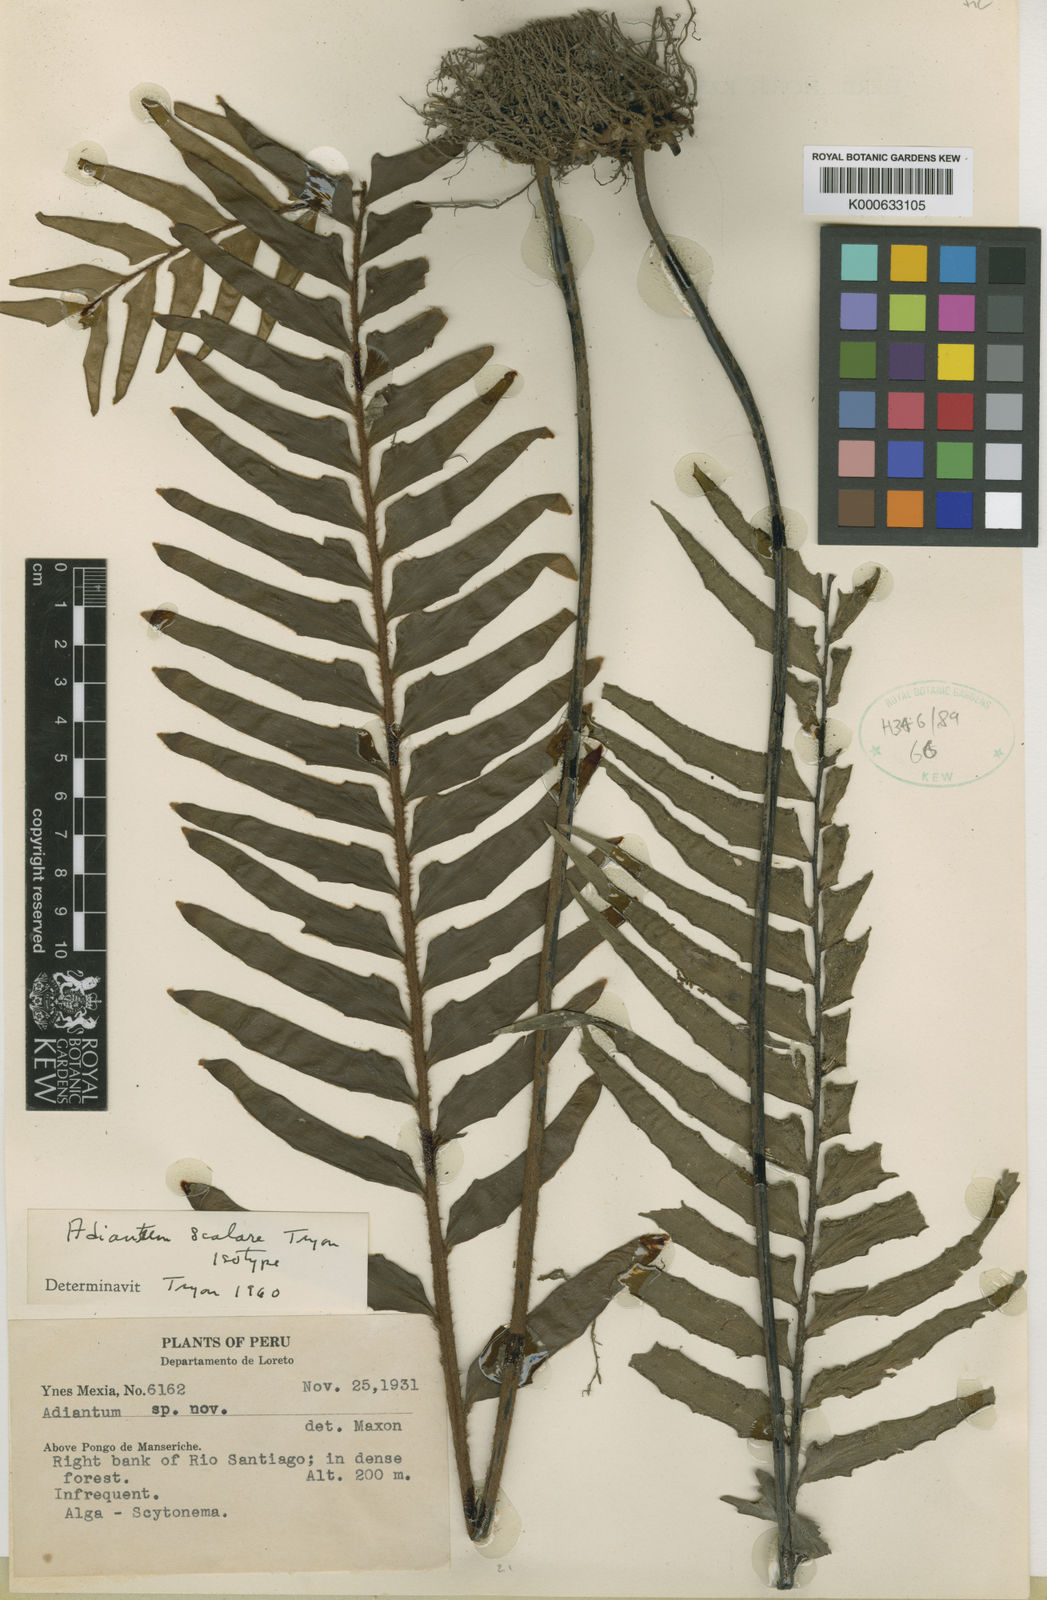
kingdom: Plantae
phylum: Tracheophyta
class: Polypodiopsida
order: Polypodiales
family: Pteridaceae
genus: Adiantum
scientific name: Adiantum scalare
